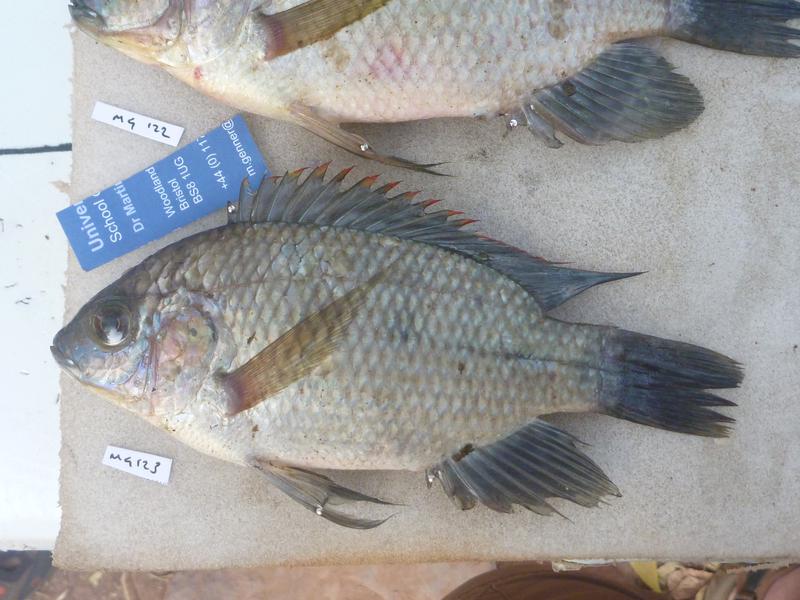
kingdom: Animalia
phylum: Chordata
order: Perciformes
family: Cichlidae
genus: Oreochromis
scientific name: Oreochromis upembae
